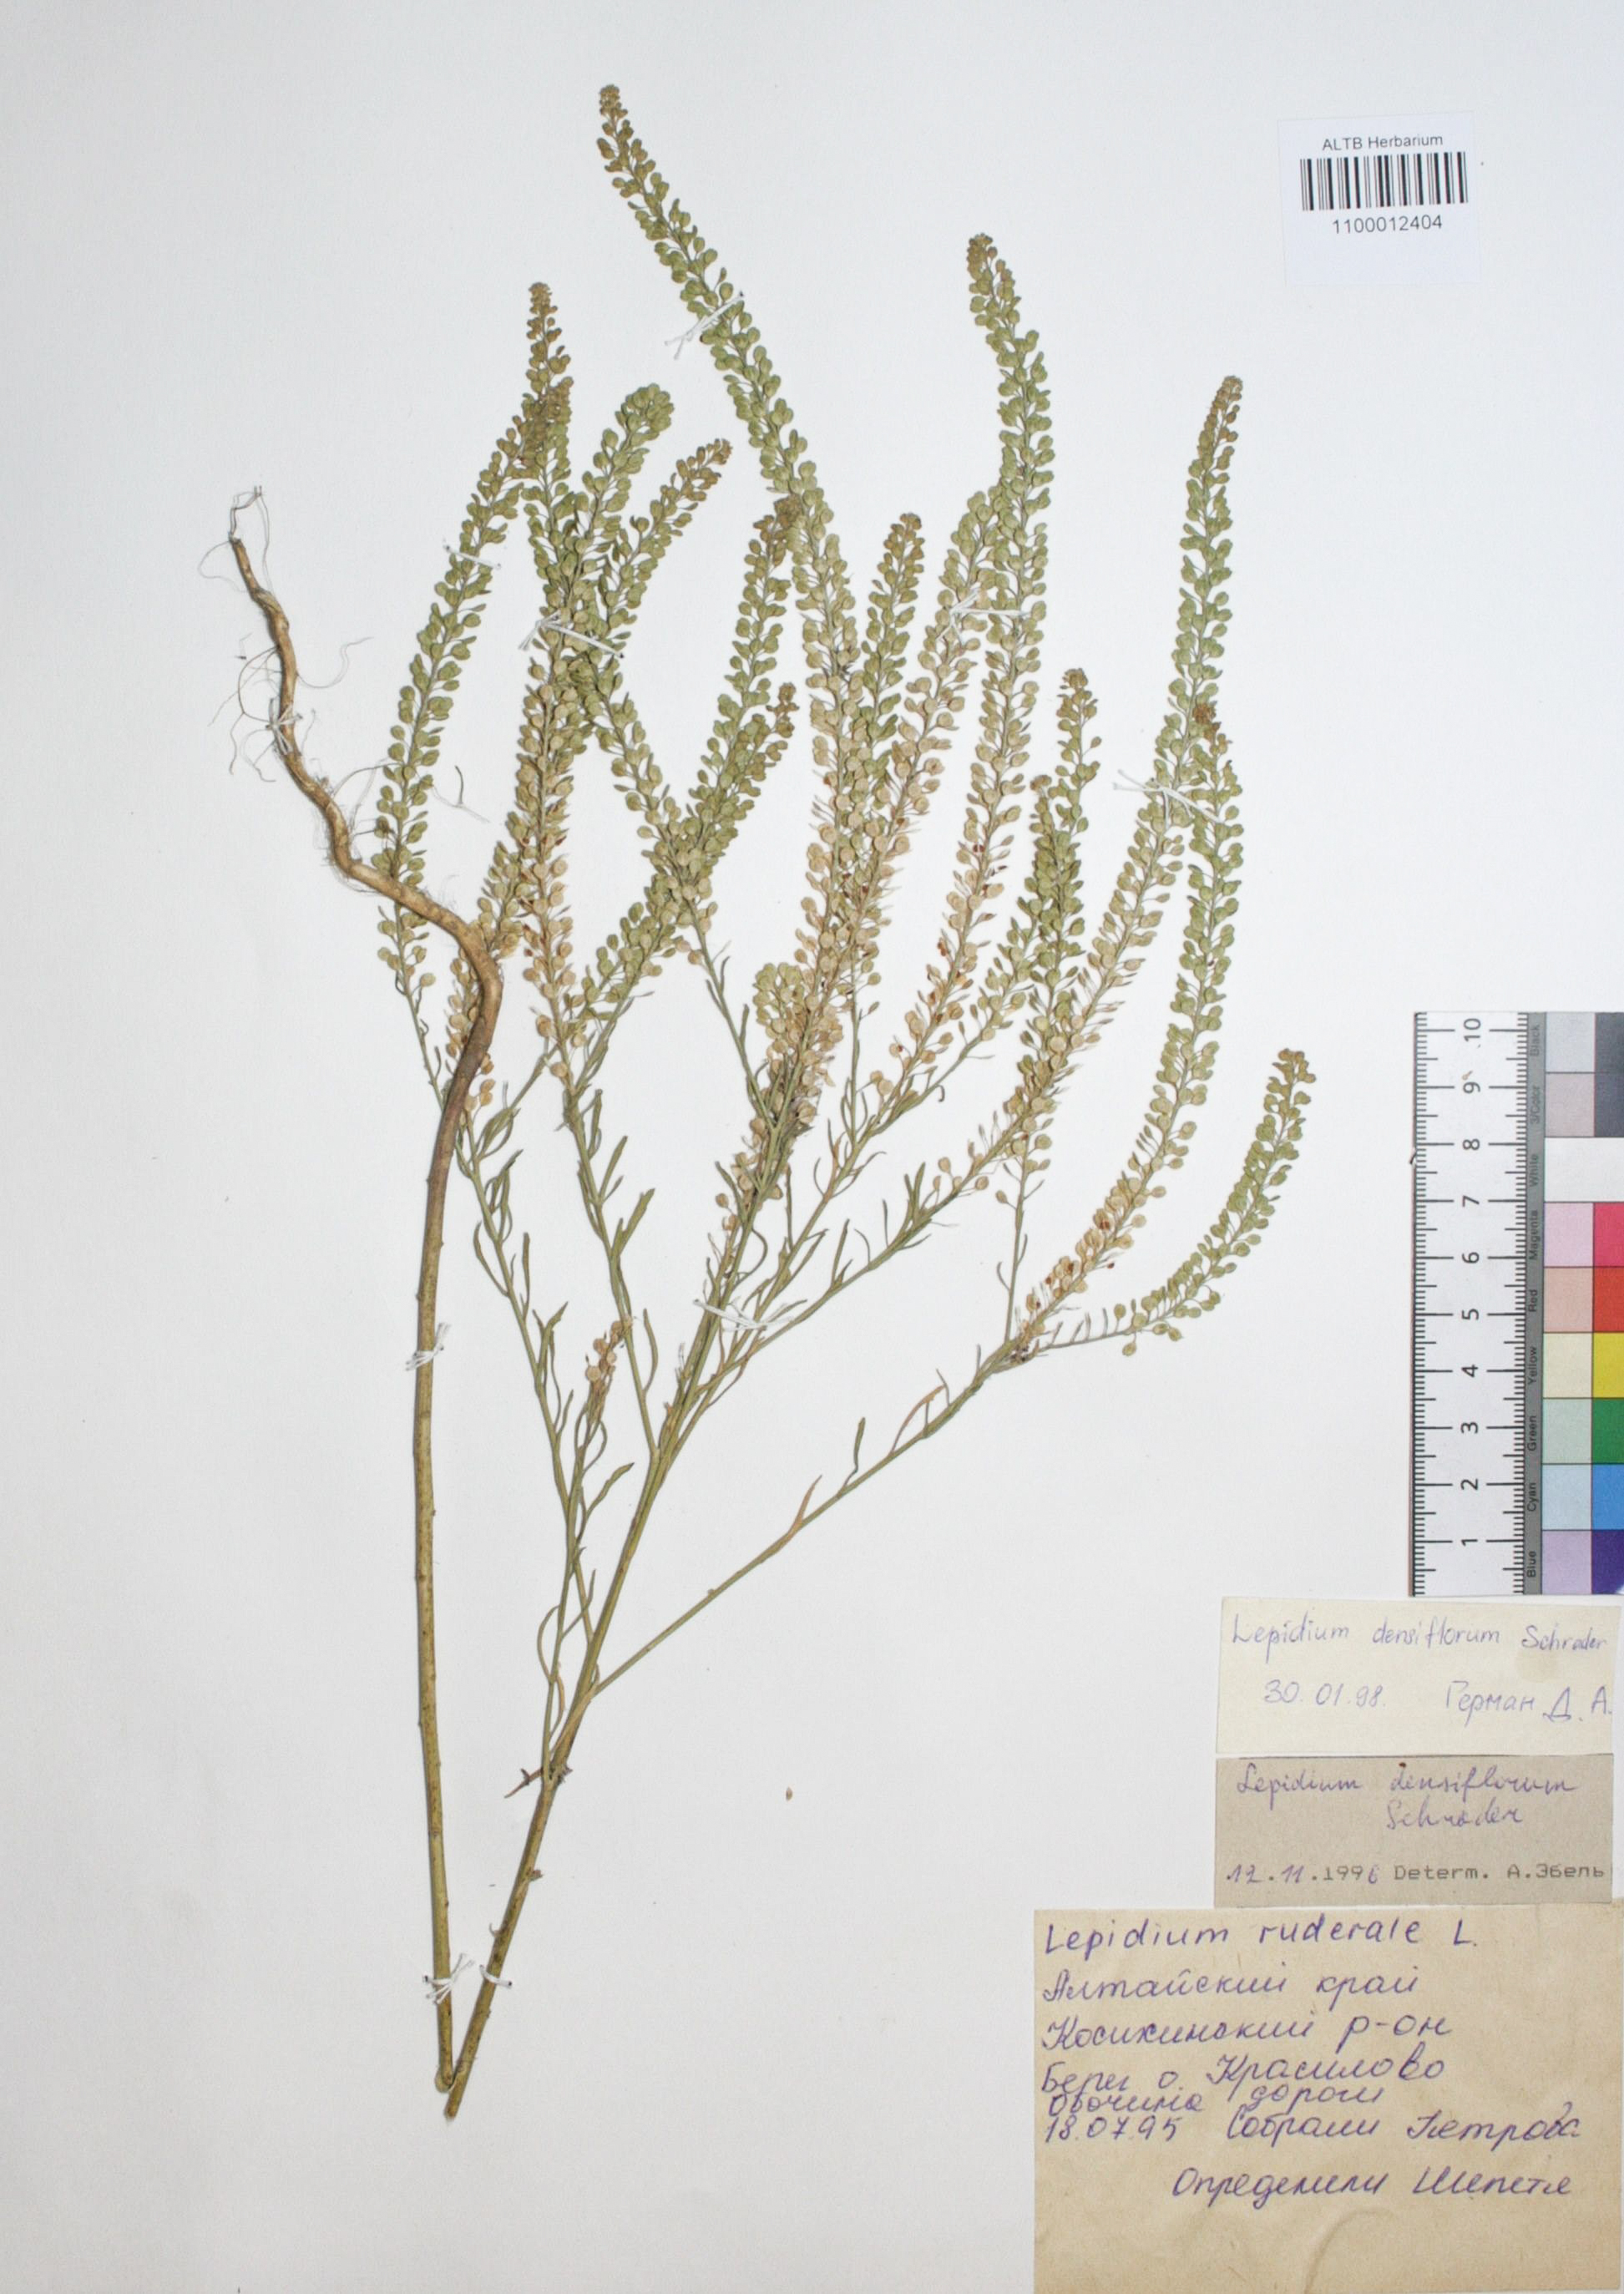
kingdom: Plantae
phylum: Tracheophyta
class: Magnoliopsida
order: Brassicales
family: Brassicaceae
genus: Lepidium
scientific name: Lepidium ruderale
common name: Narrow-leaved pepperwort
